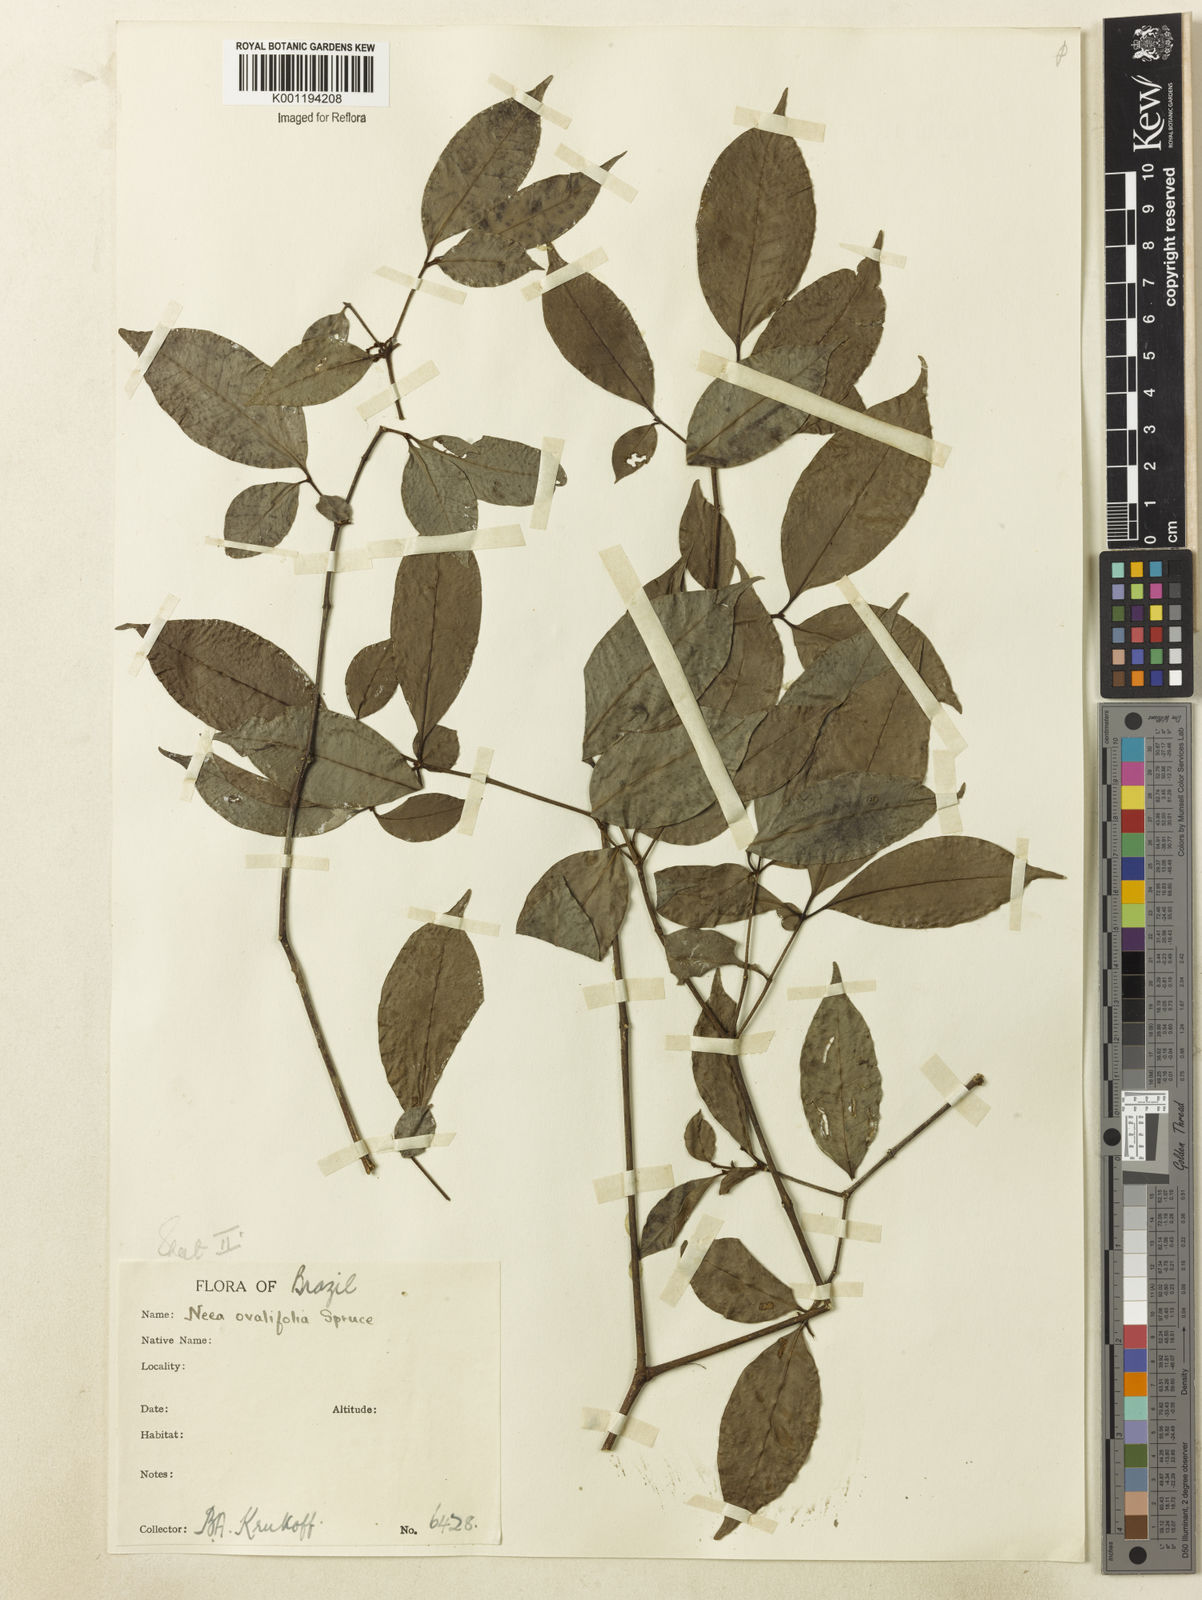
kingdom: Plantae
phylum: Tracheophyta
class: Magnoliopsida
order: Caryophyllales
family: Nyctaginaceae
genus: Neea
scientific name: Neea ovalifolia
